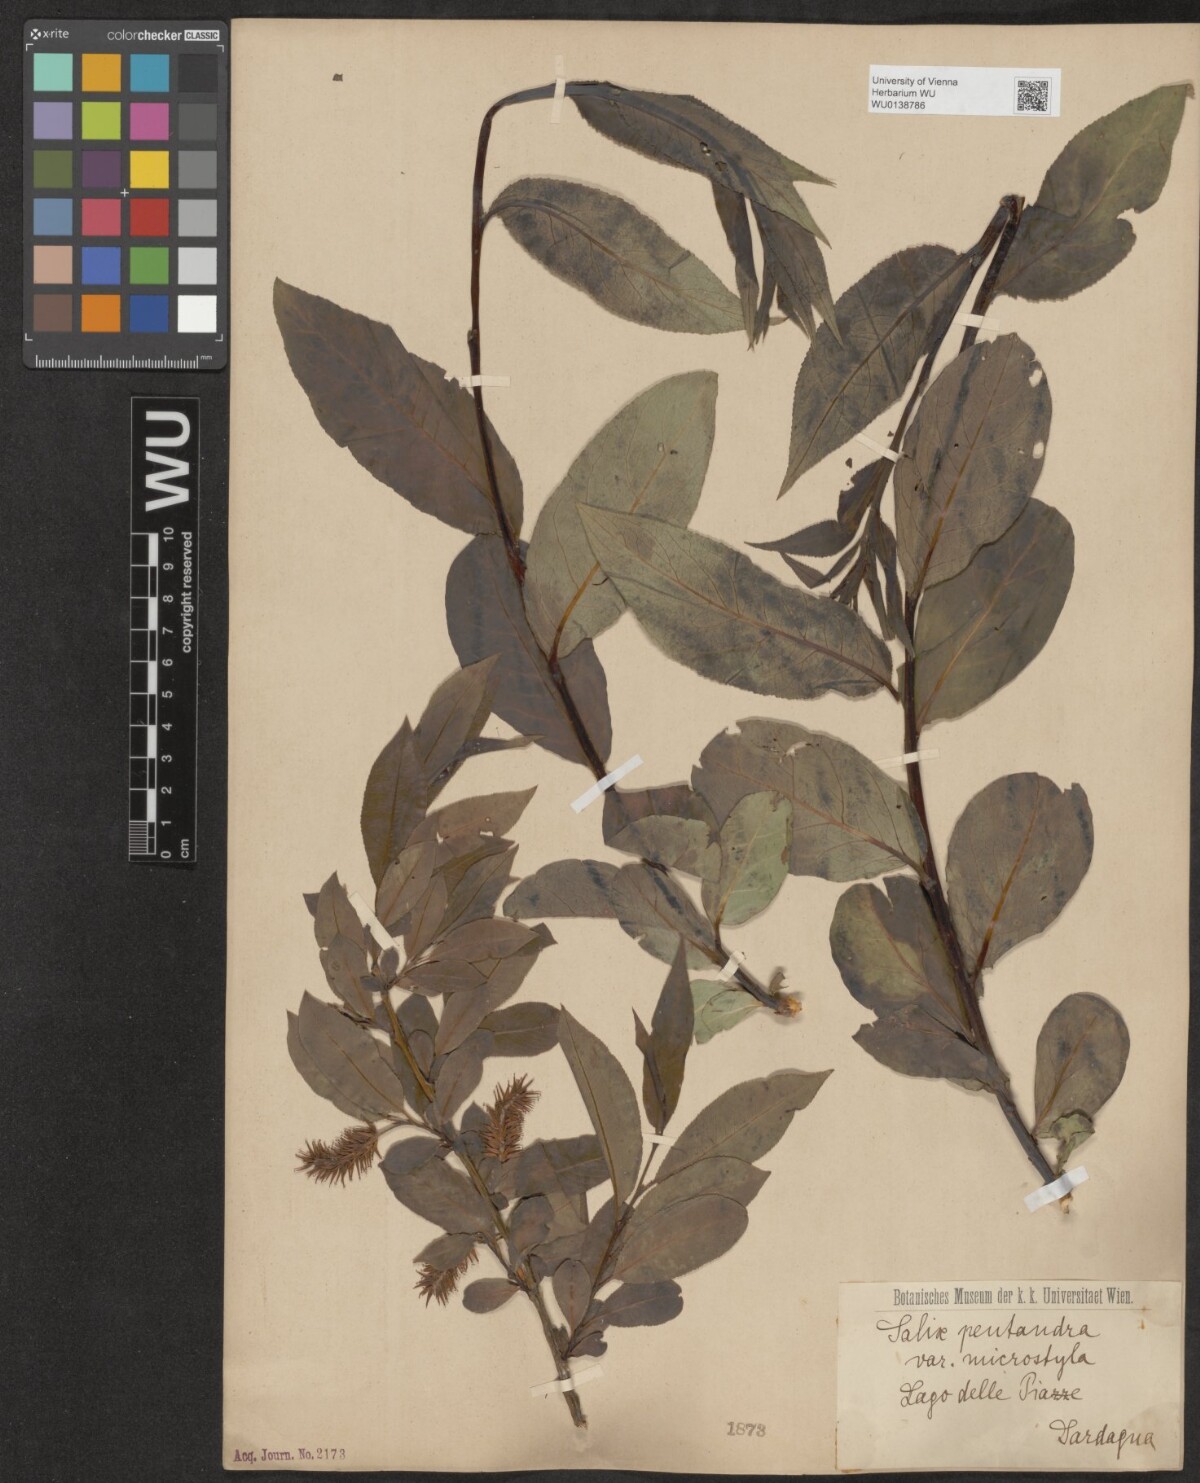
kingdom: Plantae
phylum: Tracheophyta
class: Magnoliopsida
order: Malpighiales
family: Salicaceae
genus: Salix
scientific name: Salix pentandra
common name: Bay willow
